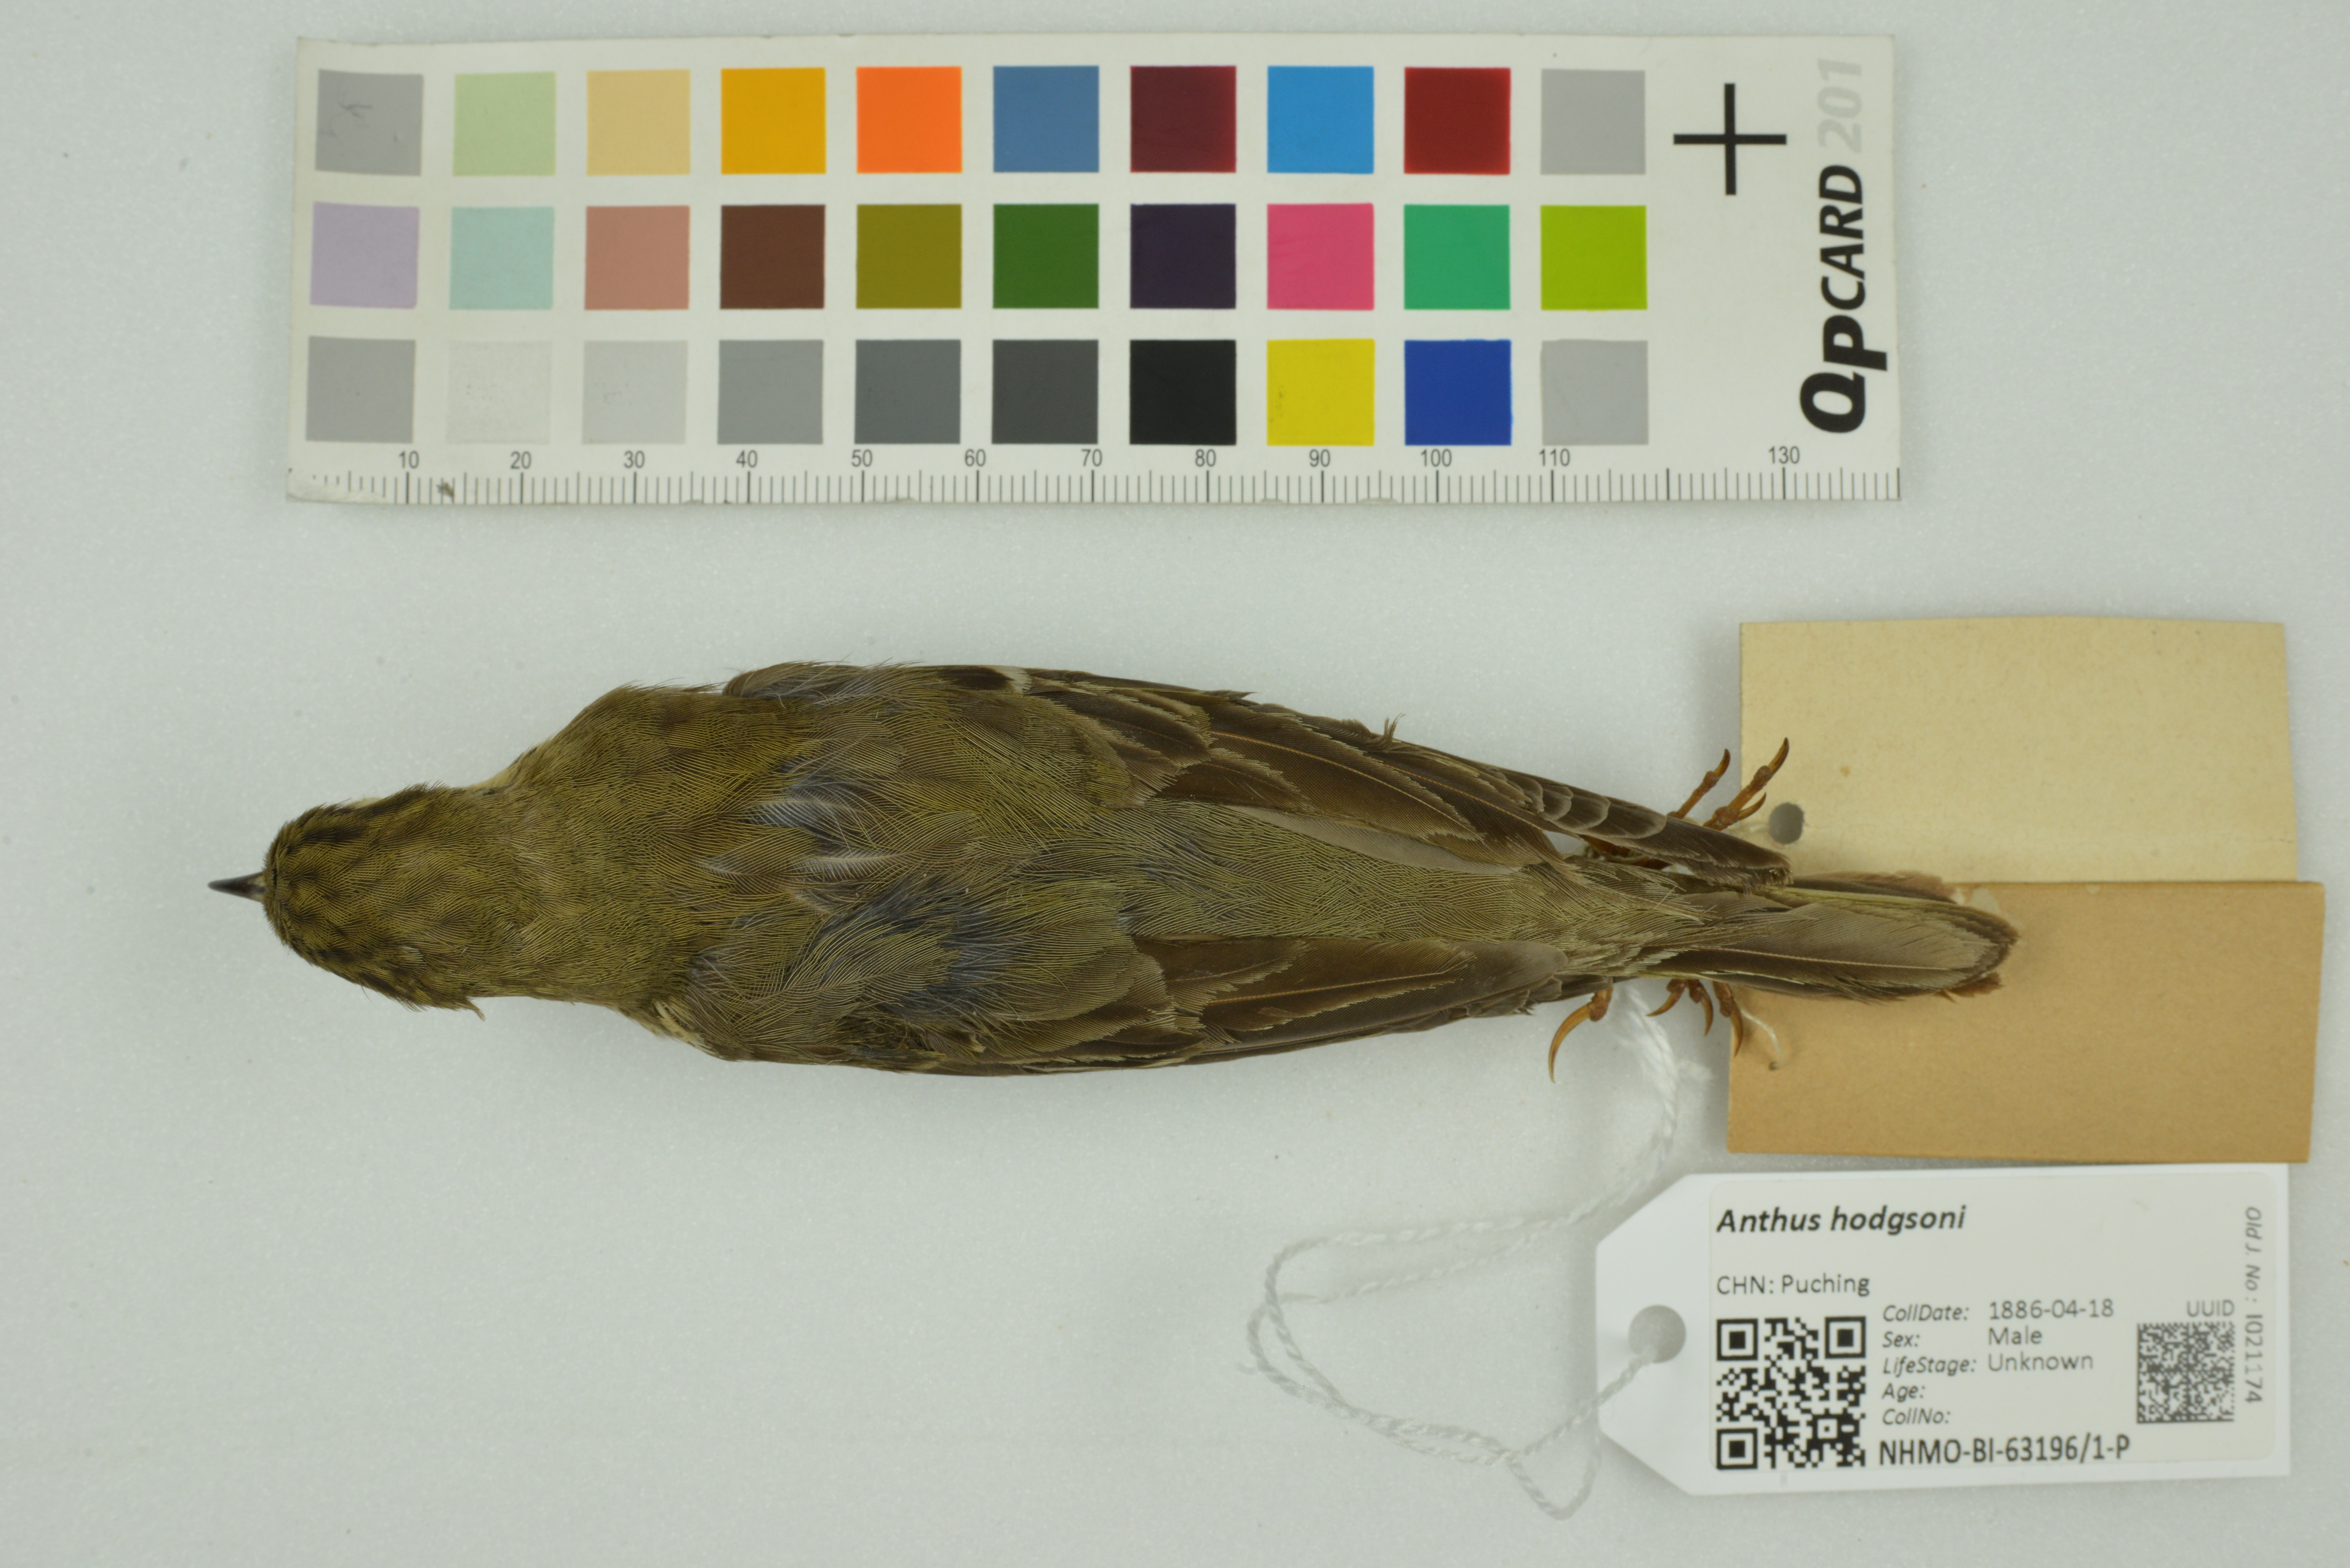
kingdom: Animalia
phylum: Chordata
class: Aves
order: Passeriformes
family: Motacillidae
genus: Anthus
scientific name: Anthus hodgsoni
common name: Olive-backed pipit
